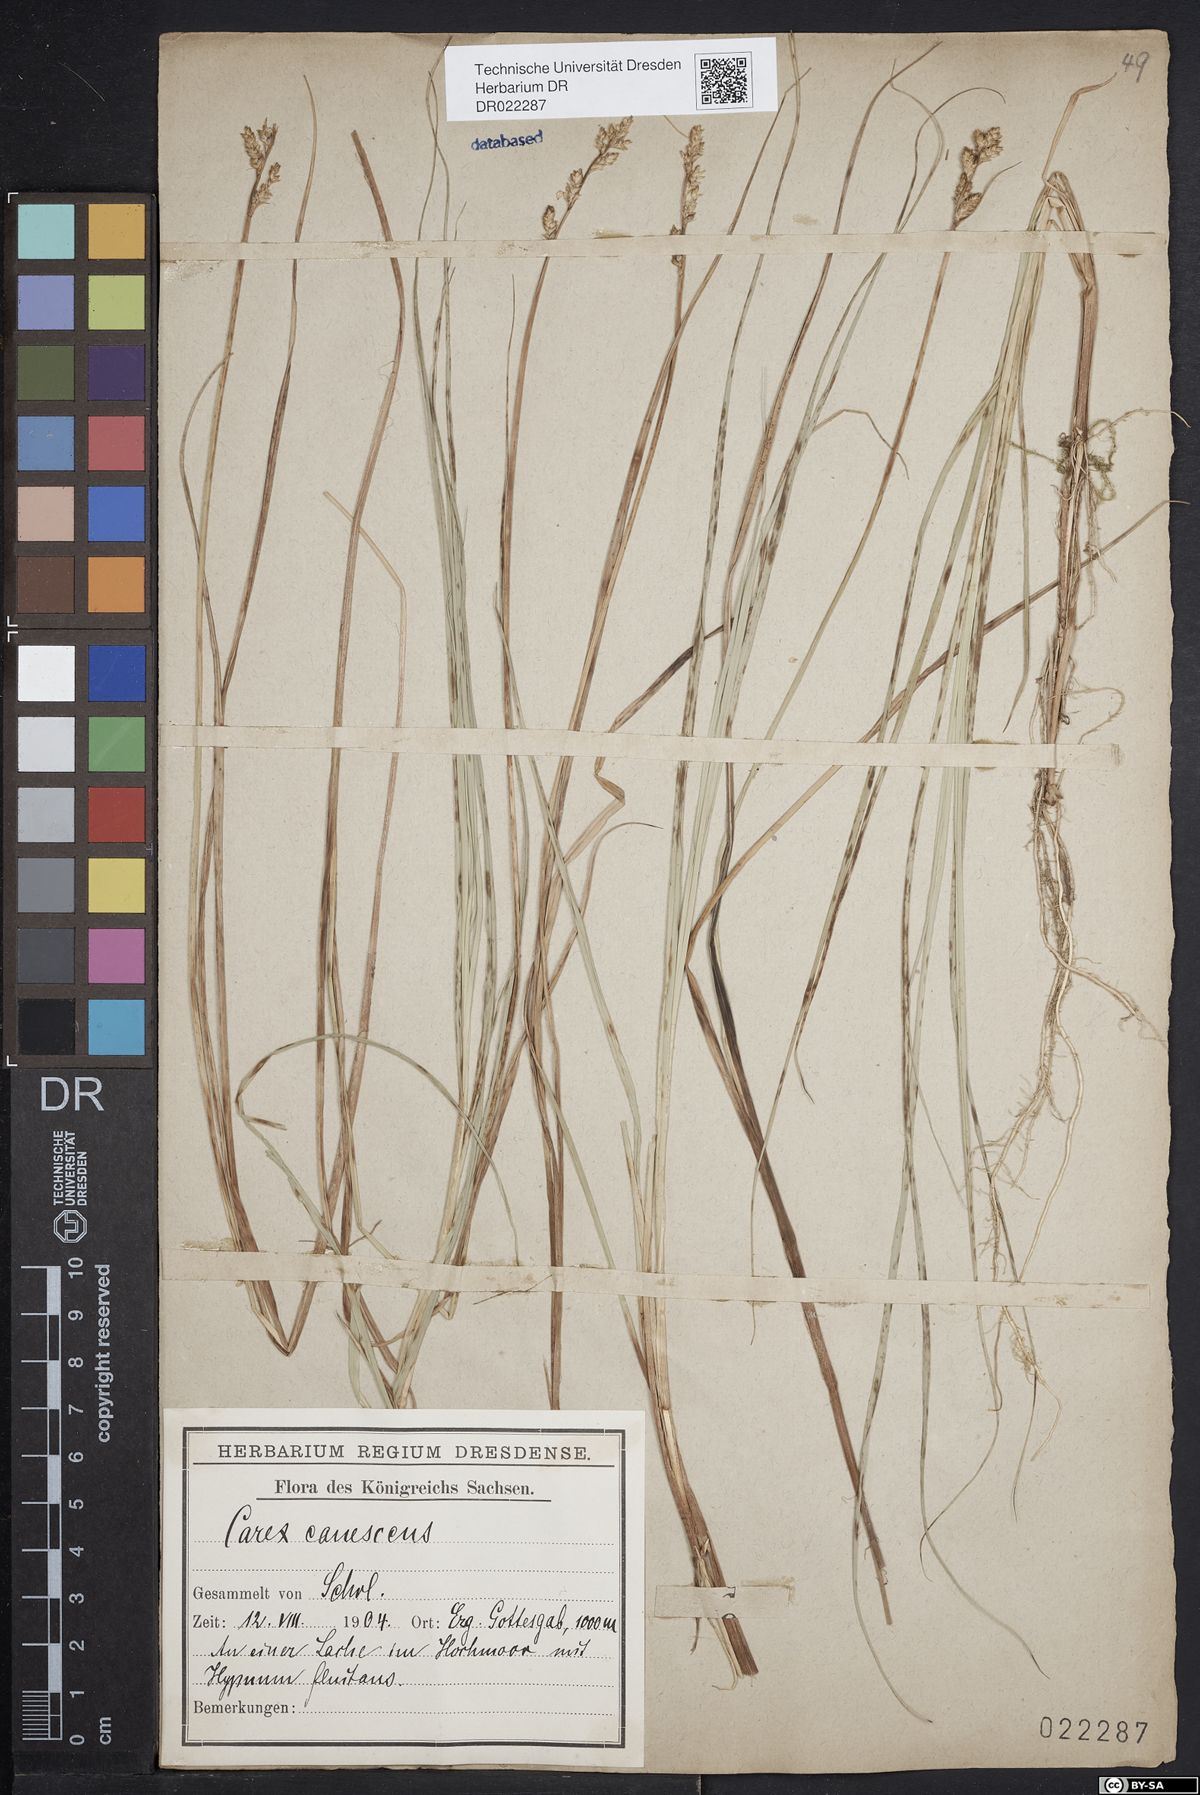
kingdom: Plantae
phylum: Tracheophyta
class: Liliopsida
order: Poales
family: Cyperaceae
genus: Carex
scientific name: Carex canescens
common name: White sedge
